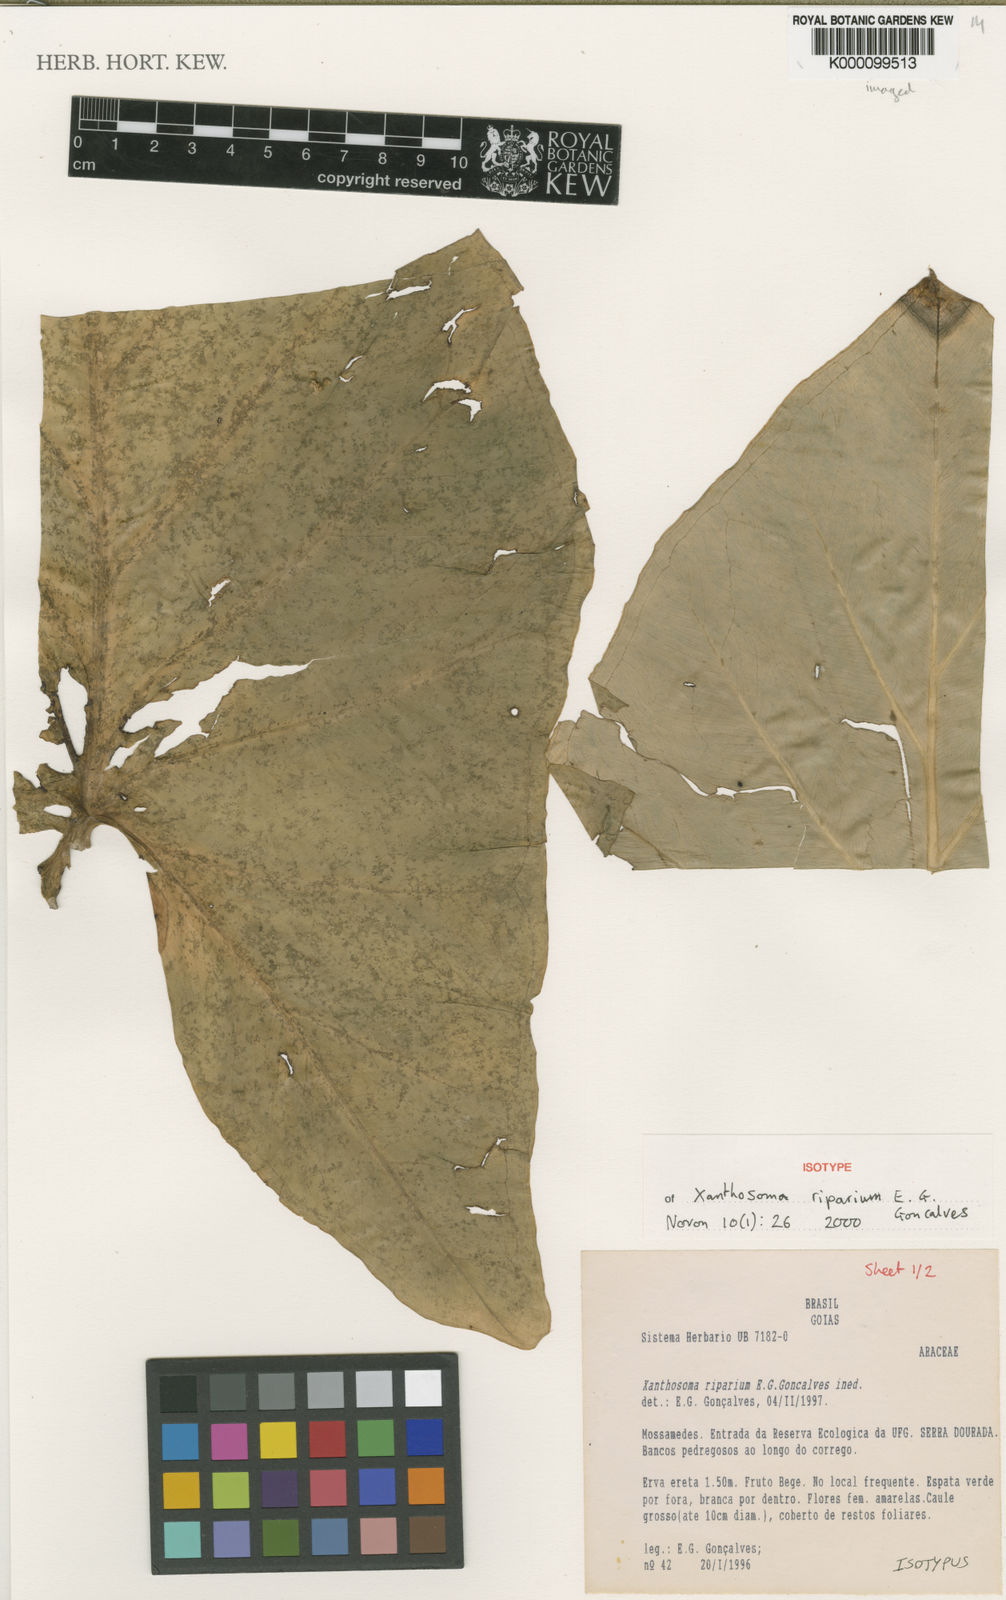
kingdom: Plantae
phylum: Tracheophyta
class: Liliopsida
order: Alismatales
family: Araceae
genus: Xanthosoma
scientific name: Xanthosoma
